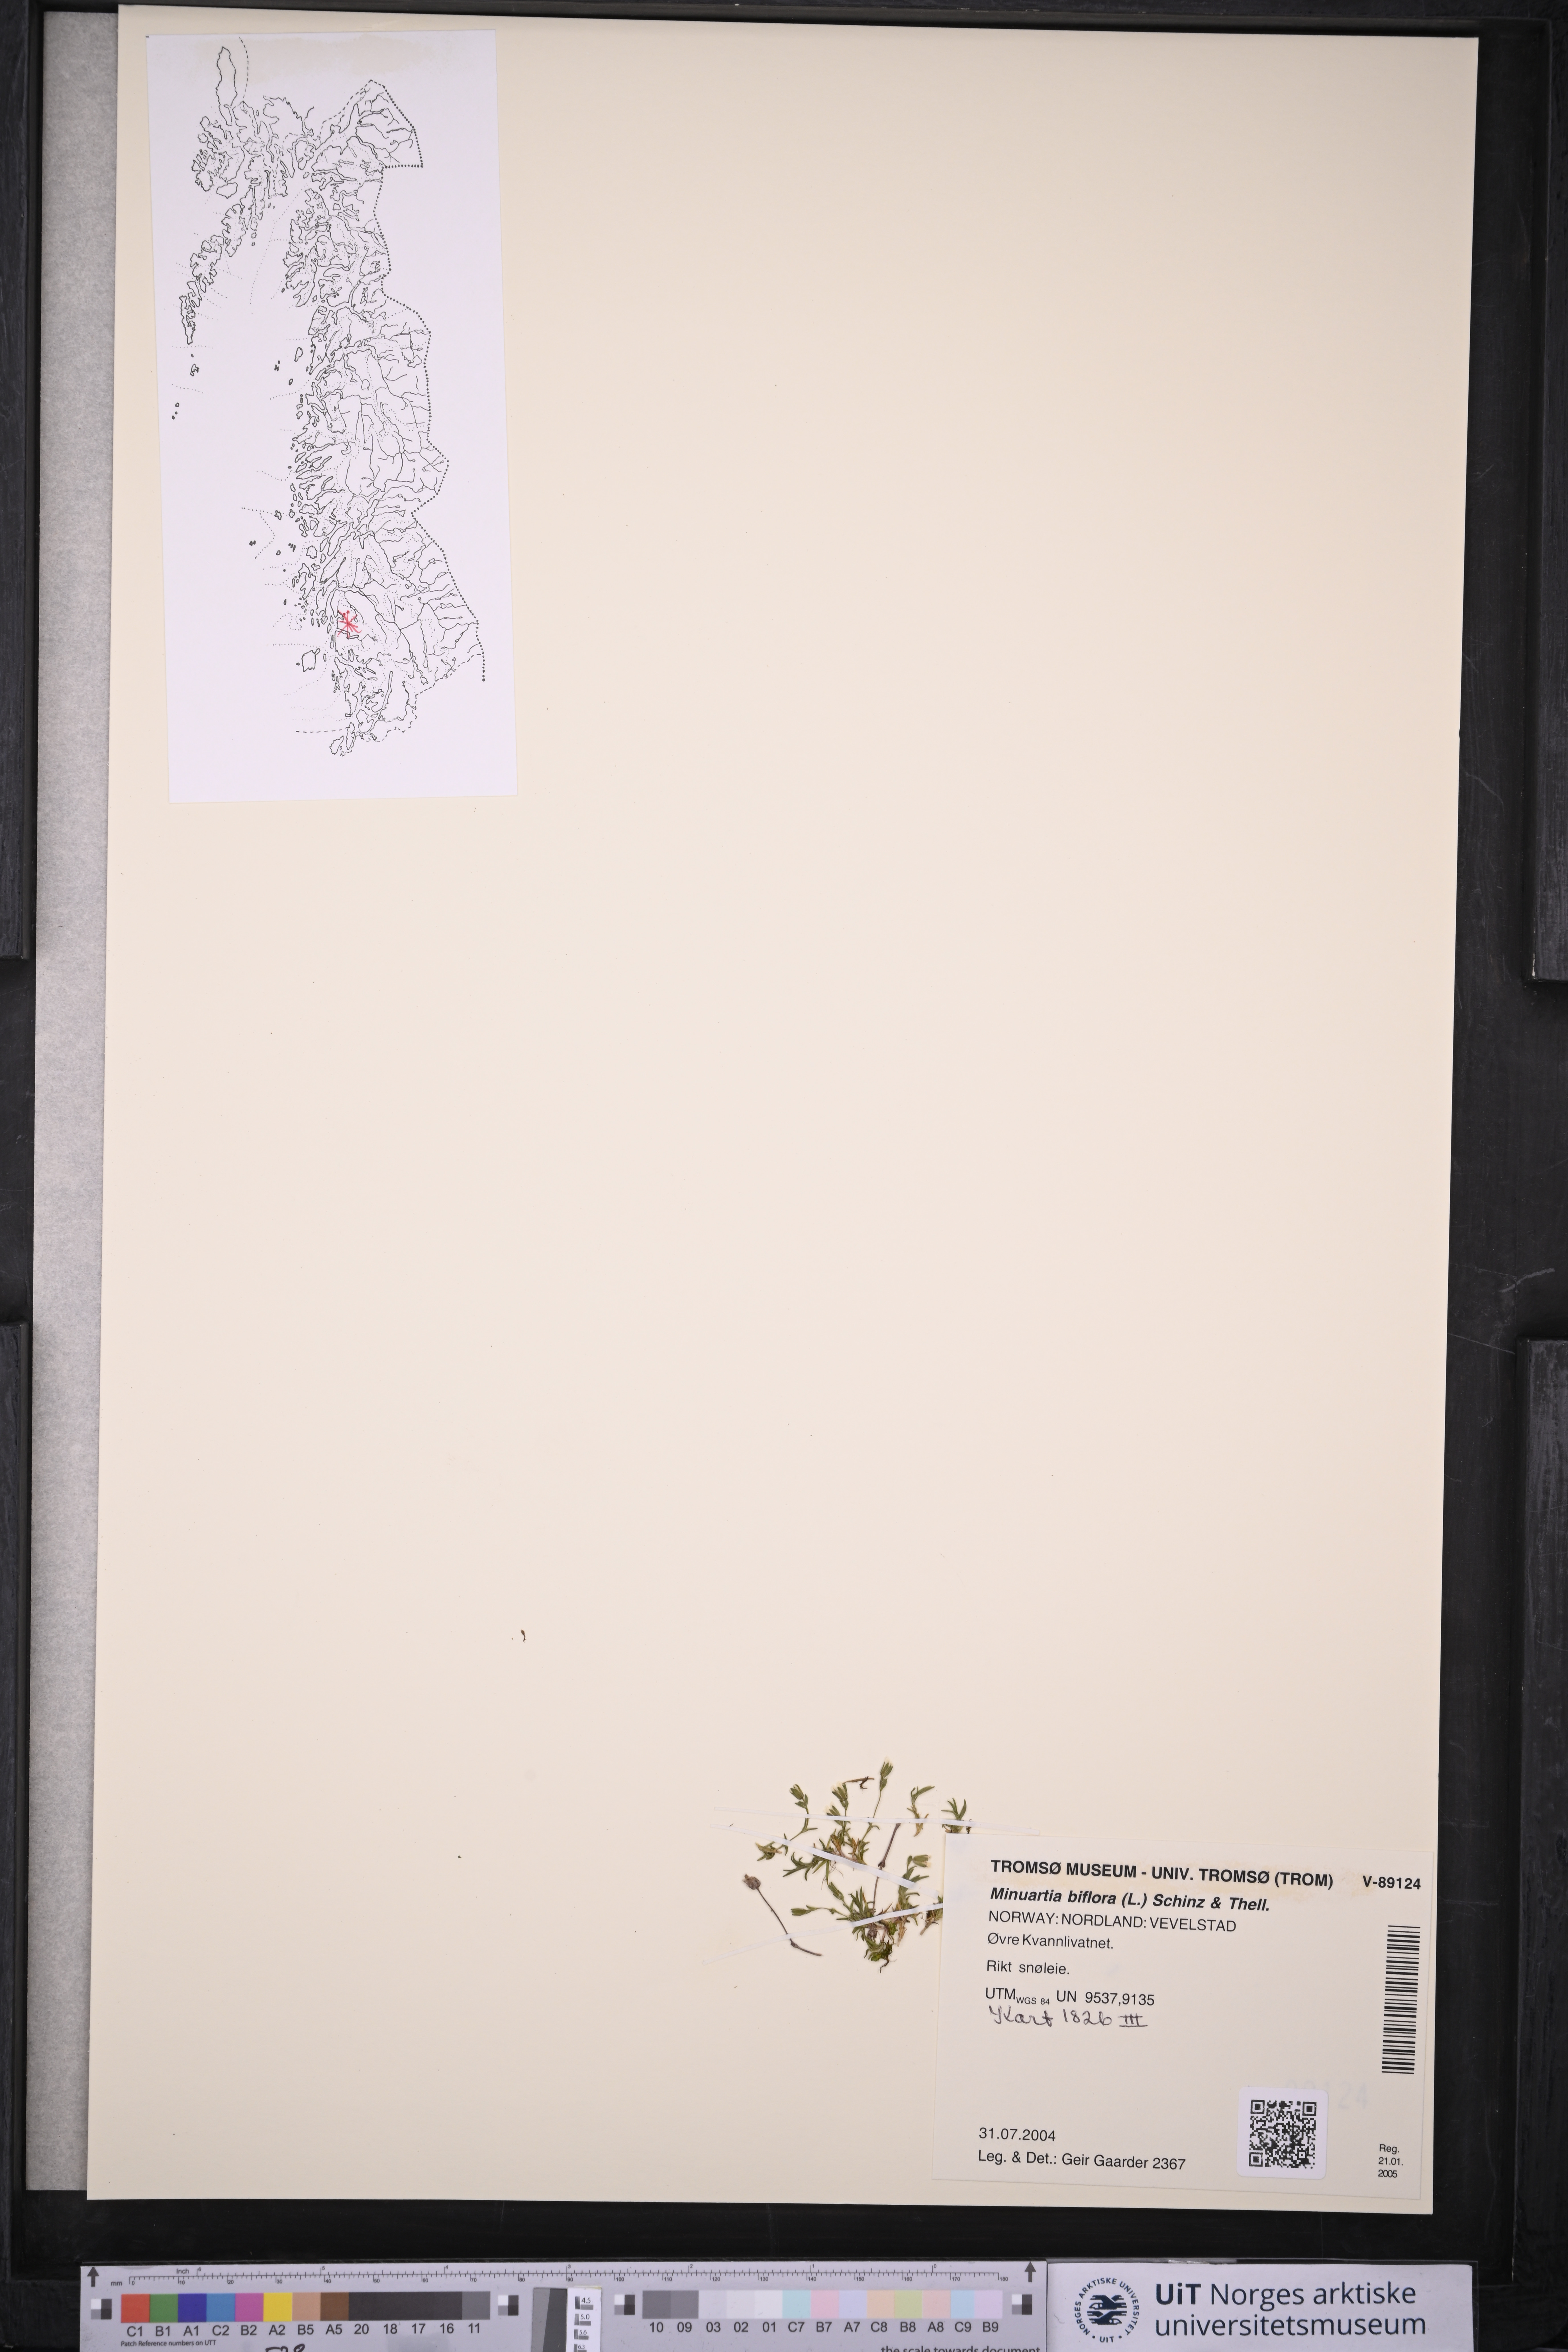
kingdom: Plantae
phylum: Tracheophyta
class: Magnoliopsida
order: Caryophyllales
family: Caryophyllaceae
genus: Cherleria
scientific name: Cherleria biflora
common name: Mountain sandwort
